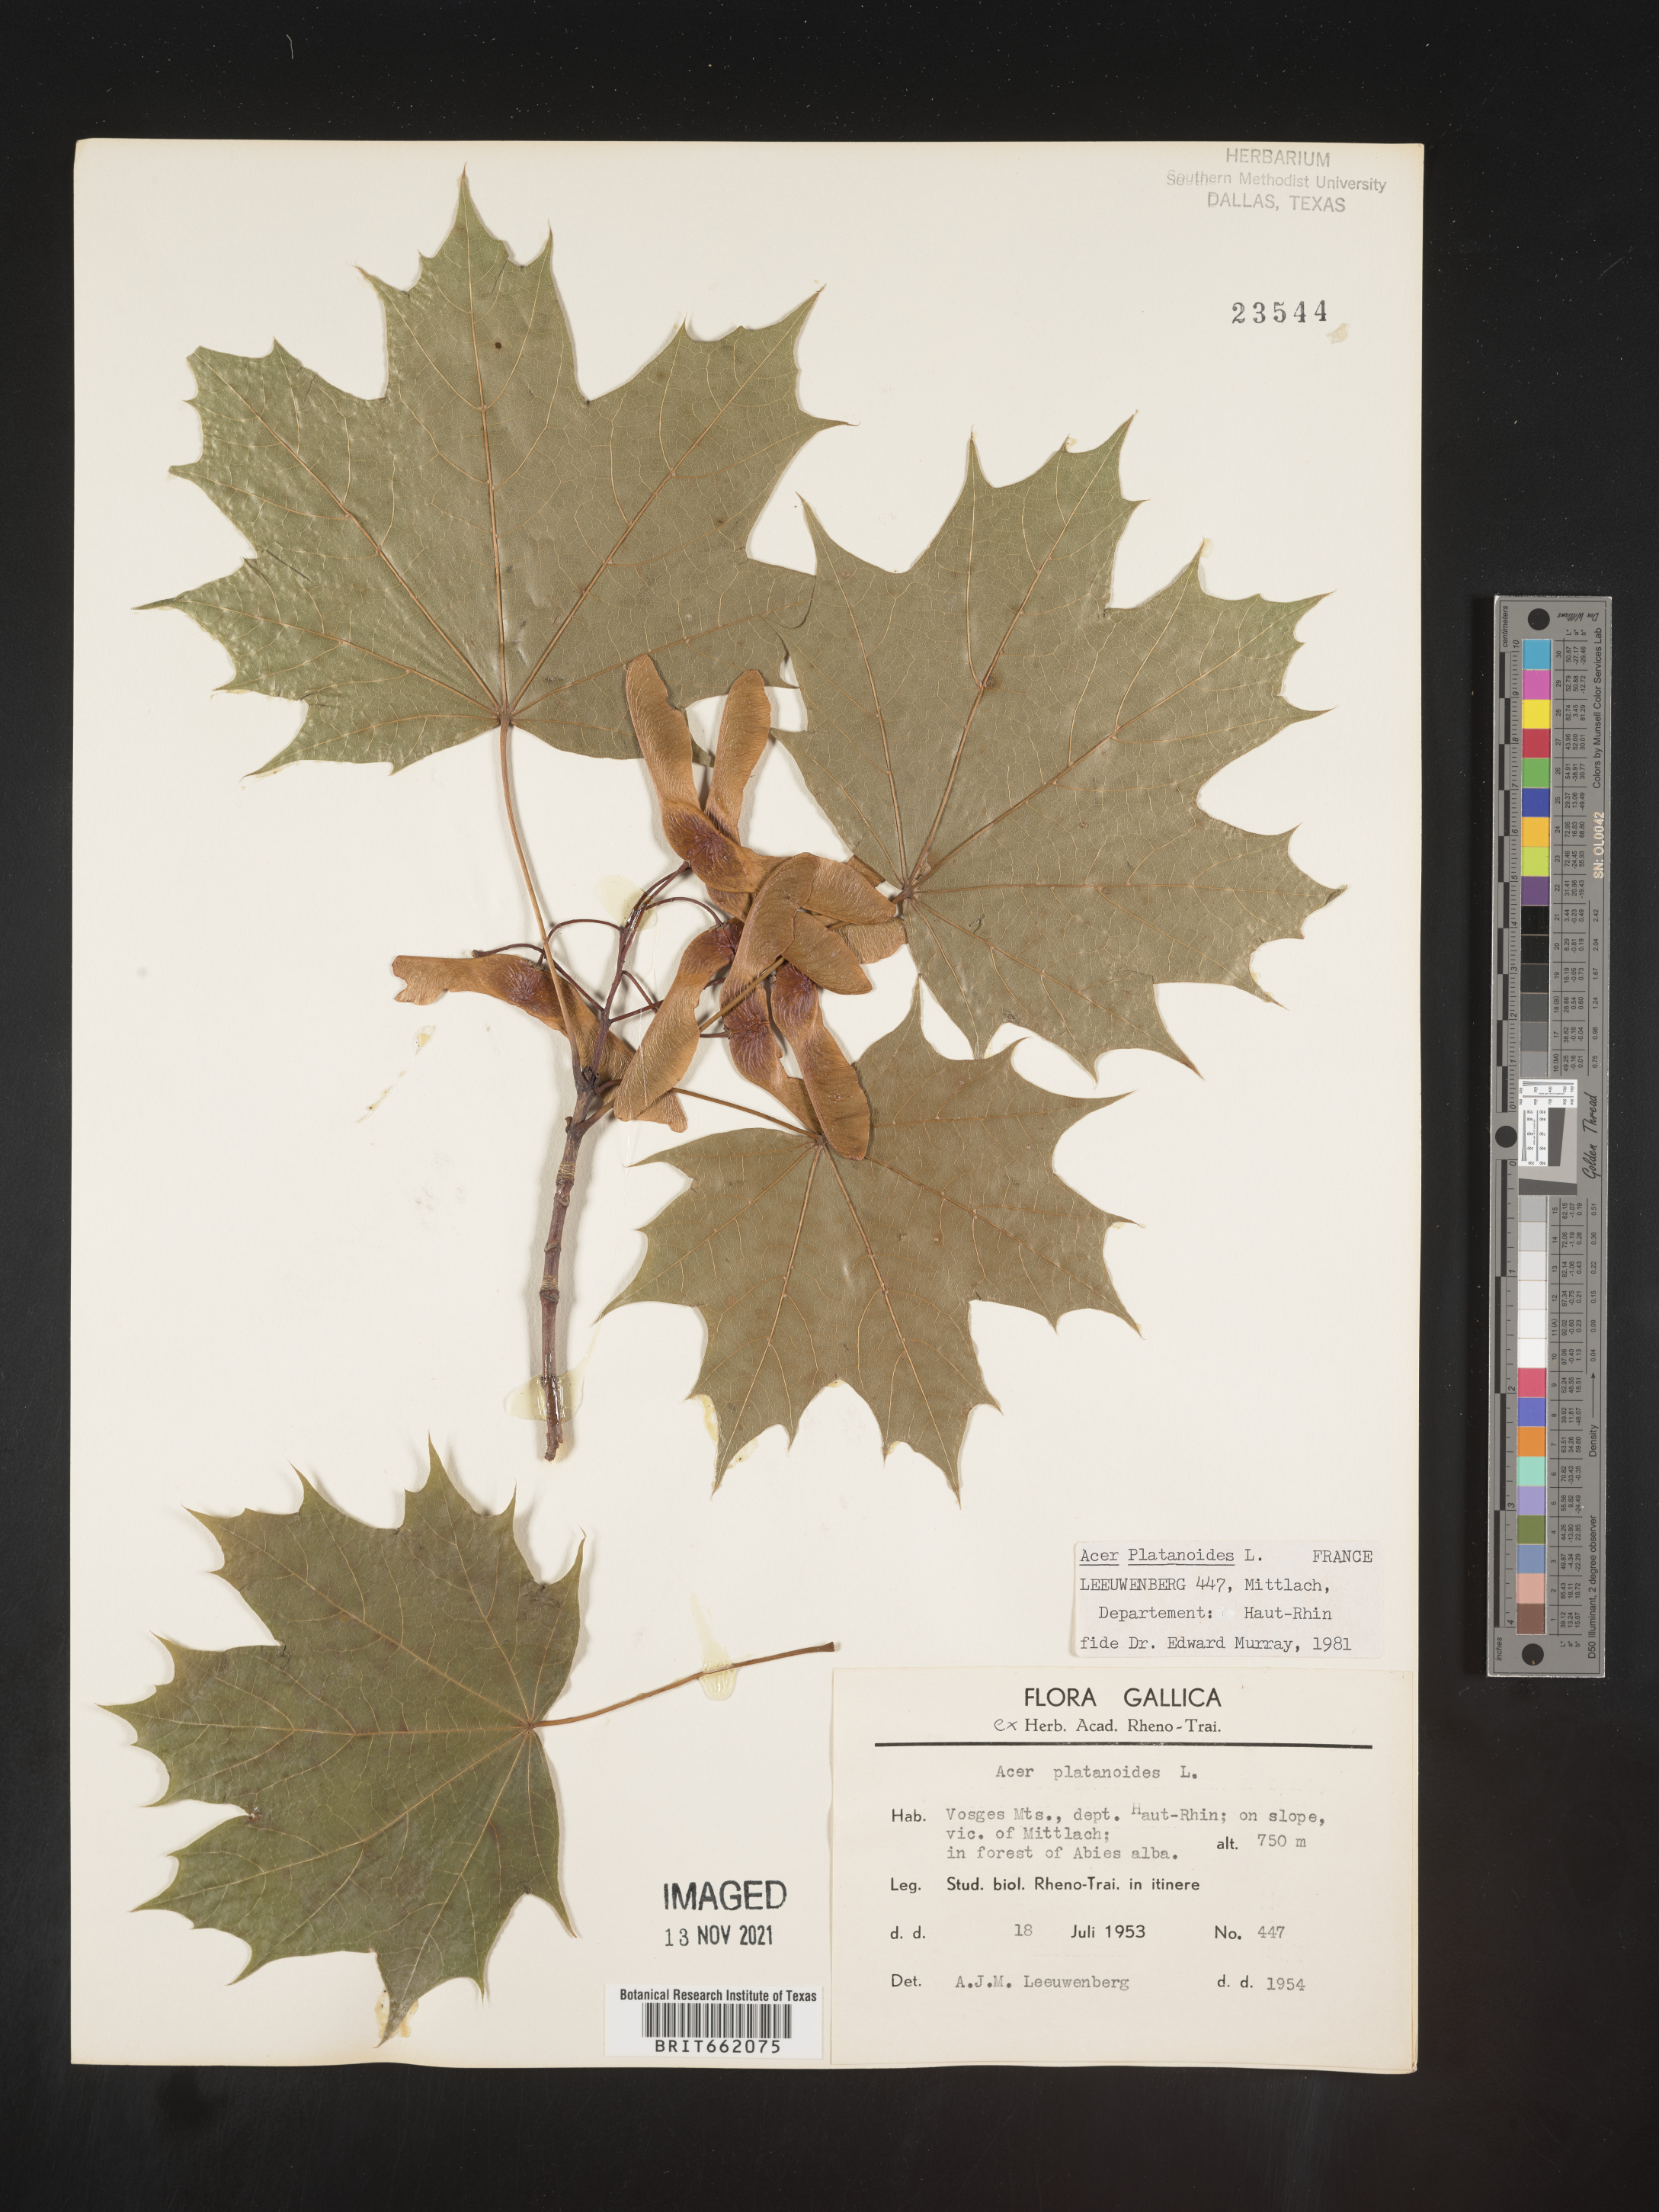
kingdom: Plantae
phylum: Tracheophyta
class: Magnoliopsida
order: Sapindales
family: Sapindaceae
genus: Acer
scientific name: Acer
